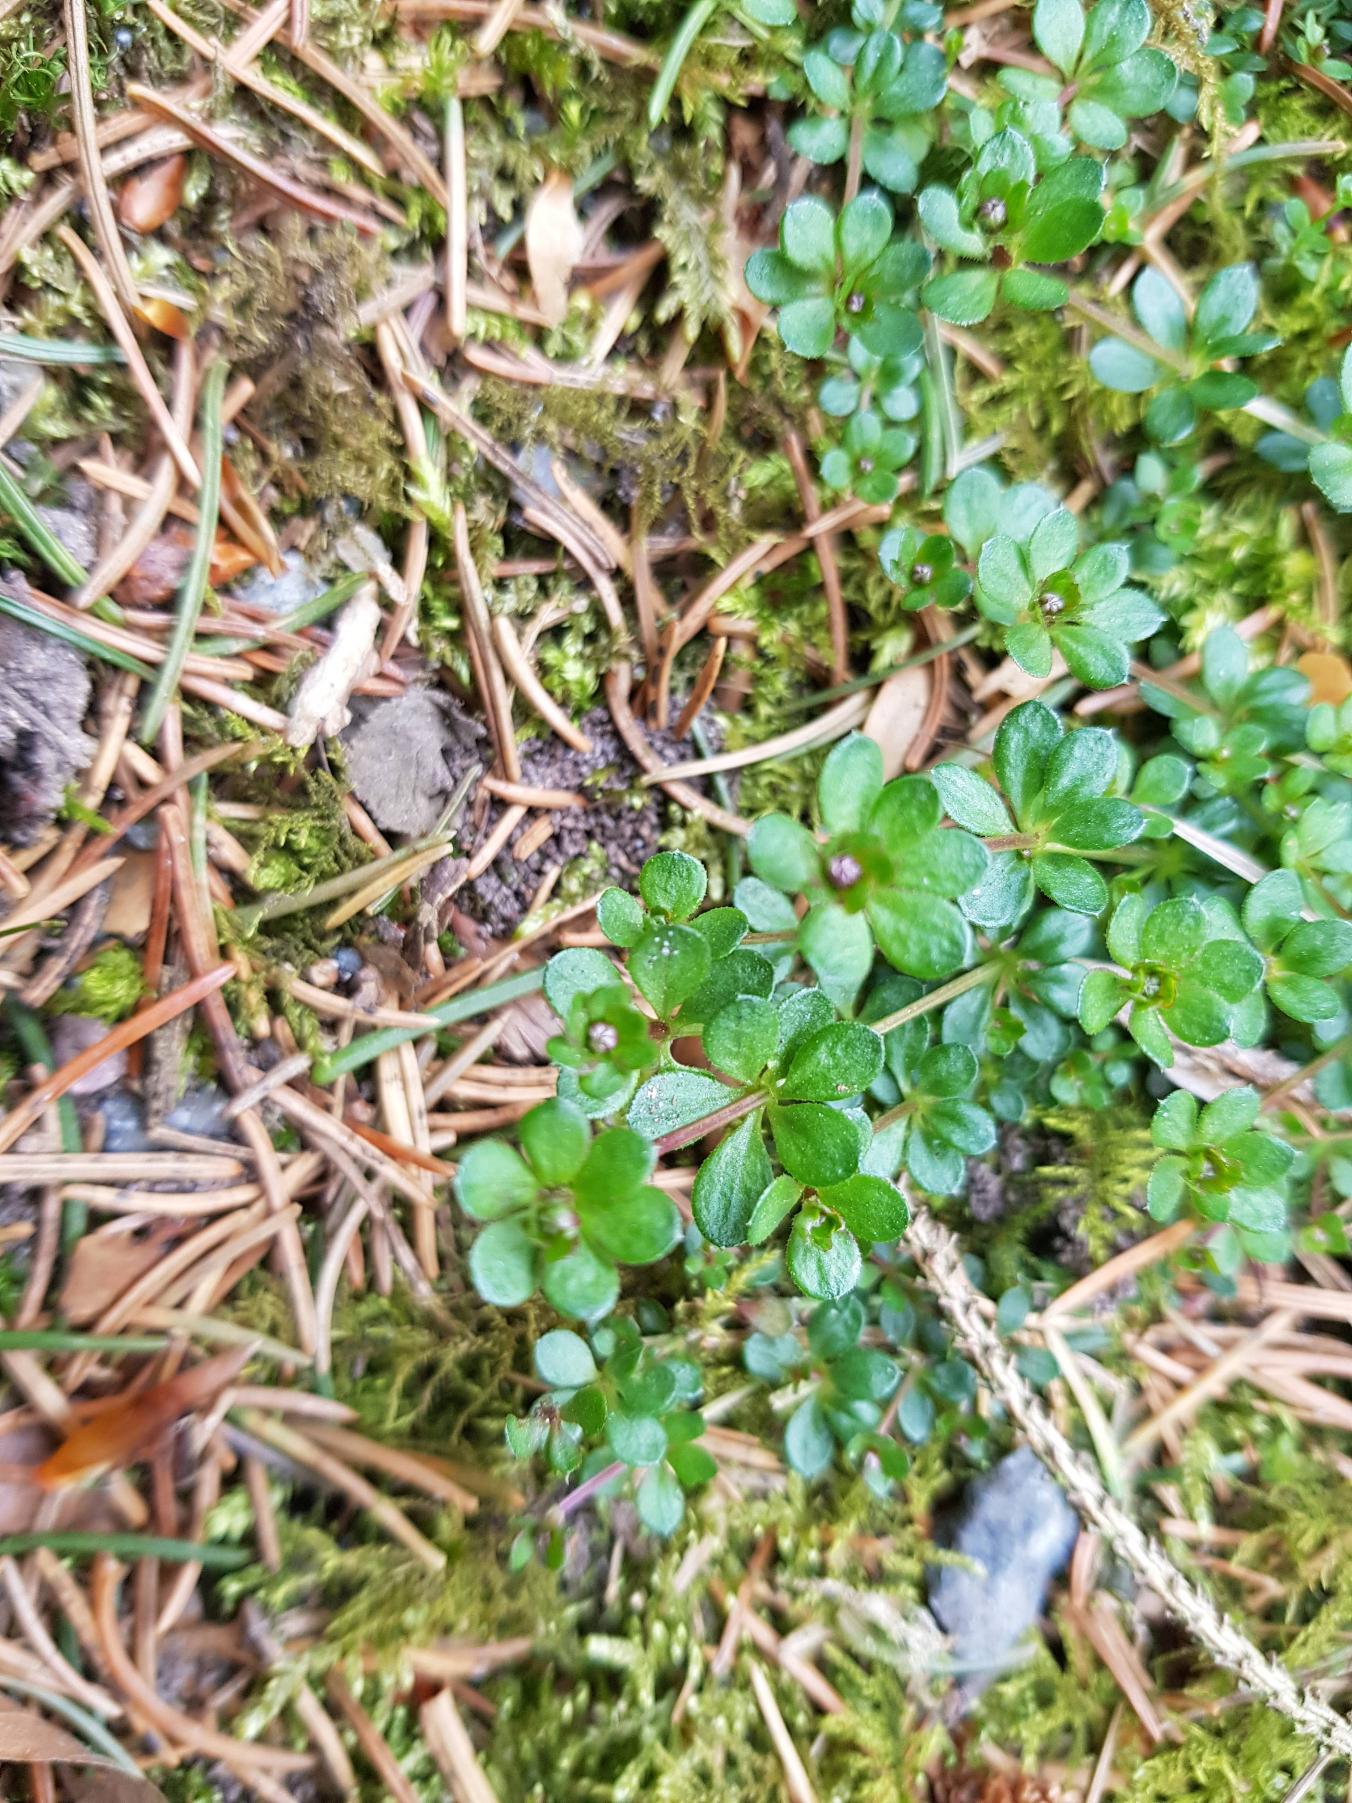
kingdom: Plantae
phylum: Tracheophyta
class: Magnoliopsida
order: Gentianales
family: Rubiaceae
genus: Galium
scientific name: Galium saxatile
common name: Lyng-snerre
